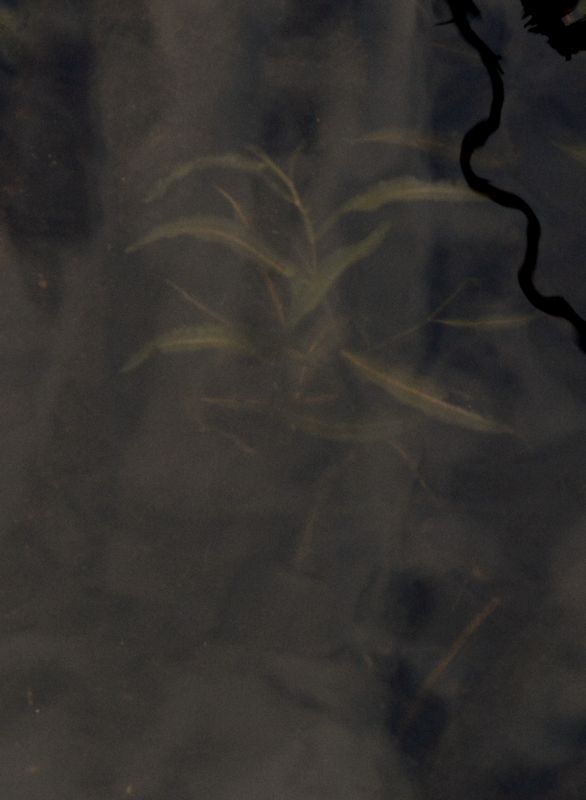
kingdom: Plantae
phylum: Tracheophyta
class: Liliopsida
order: Alismatales
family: Potamogetonaceae
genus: Potamogeton
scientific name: Potamogeton alpinus
